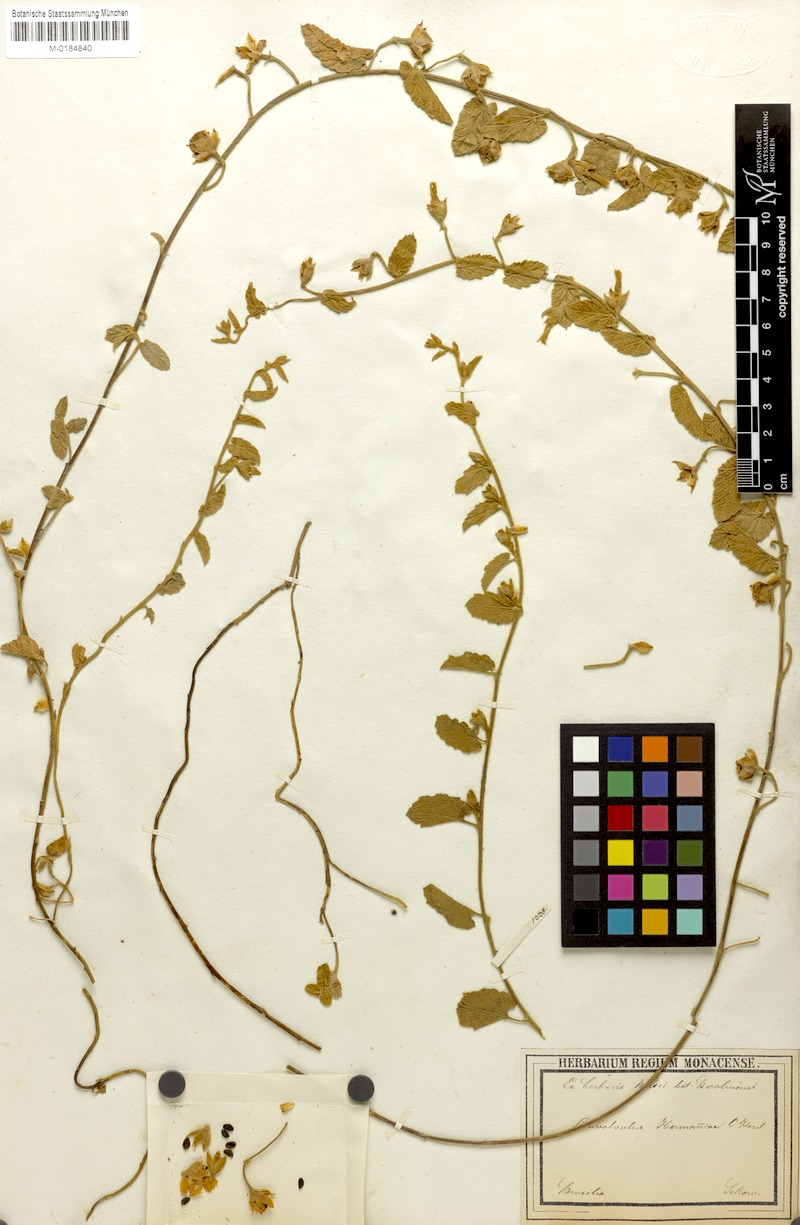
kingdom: Plantae
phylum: Tracheophyta
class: Magnoliopsida
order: Solanales
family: Convolvulaceae
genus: Convolvulus
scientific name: Convolvulus hermanniae
